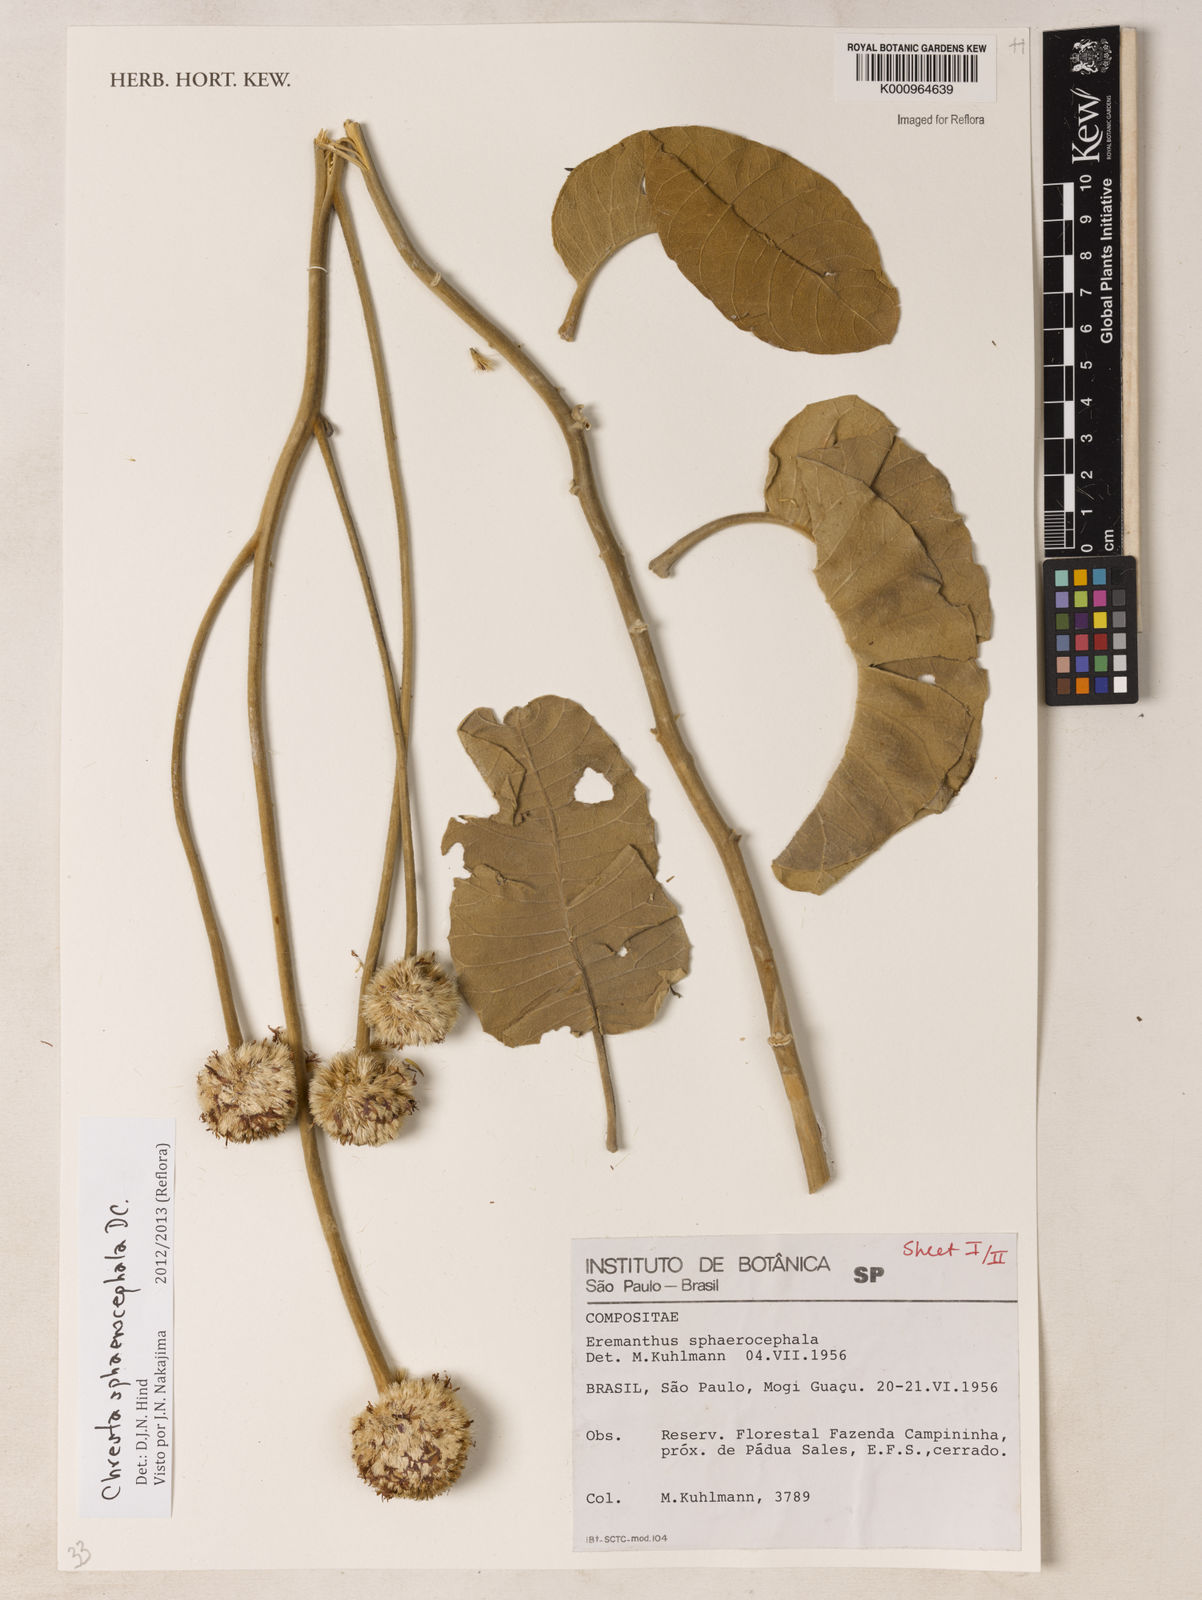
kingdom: Plantae
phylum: Tracheophyta
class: Magnoliopsida
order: Asterales
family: Asteraceae
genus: Chresta
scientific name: Chresta sphaerocephala
